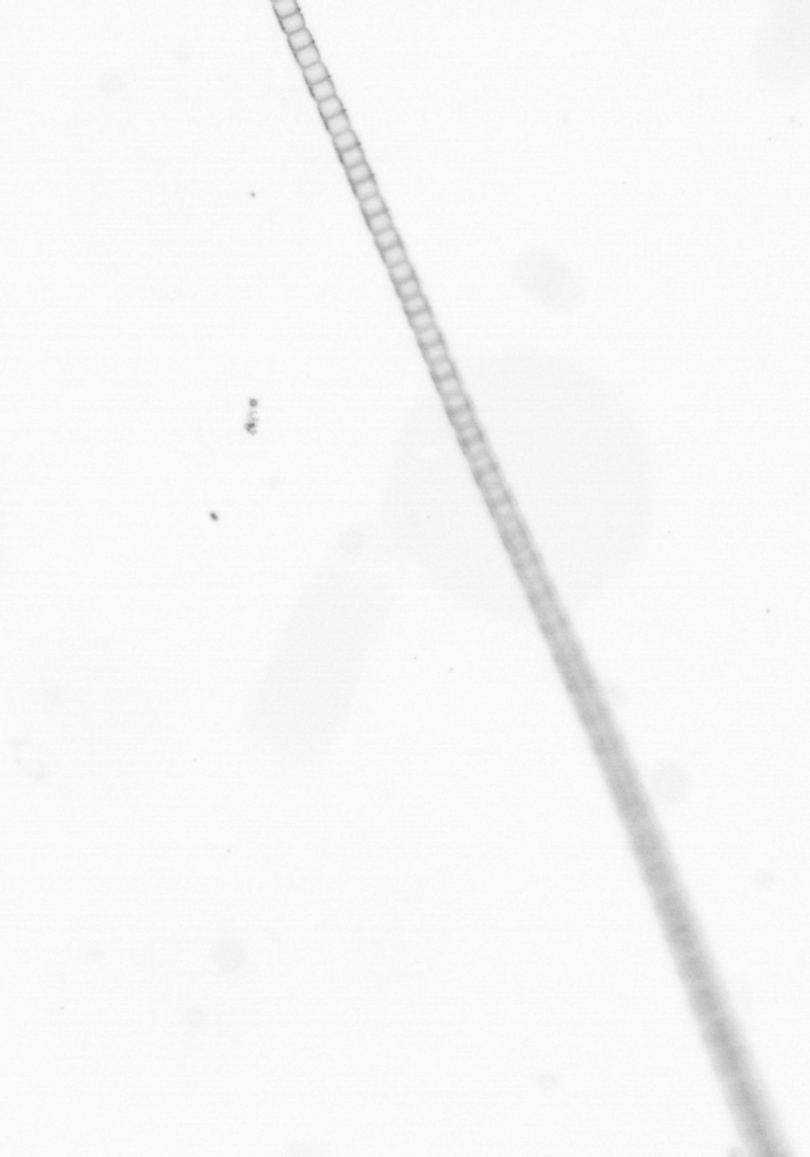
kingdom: Chromista
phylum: Ochrophyta
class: Bacillariophyceae
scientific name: Bacillariophyceae
